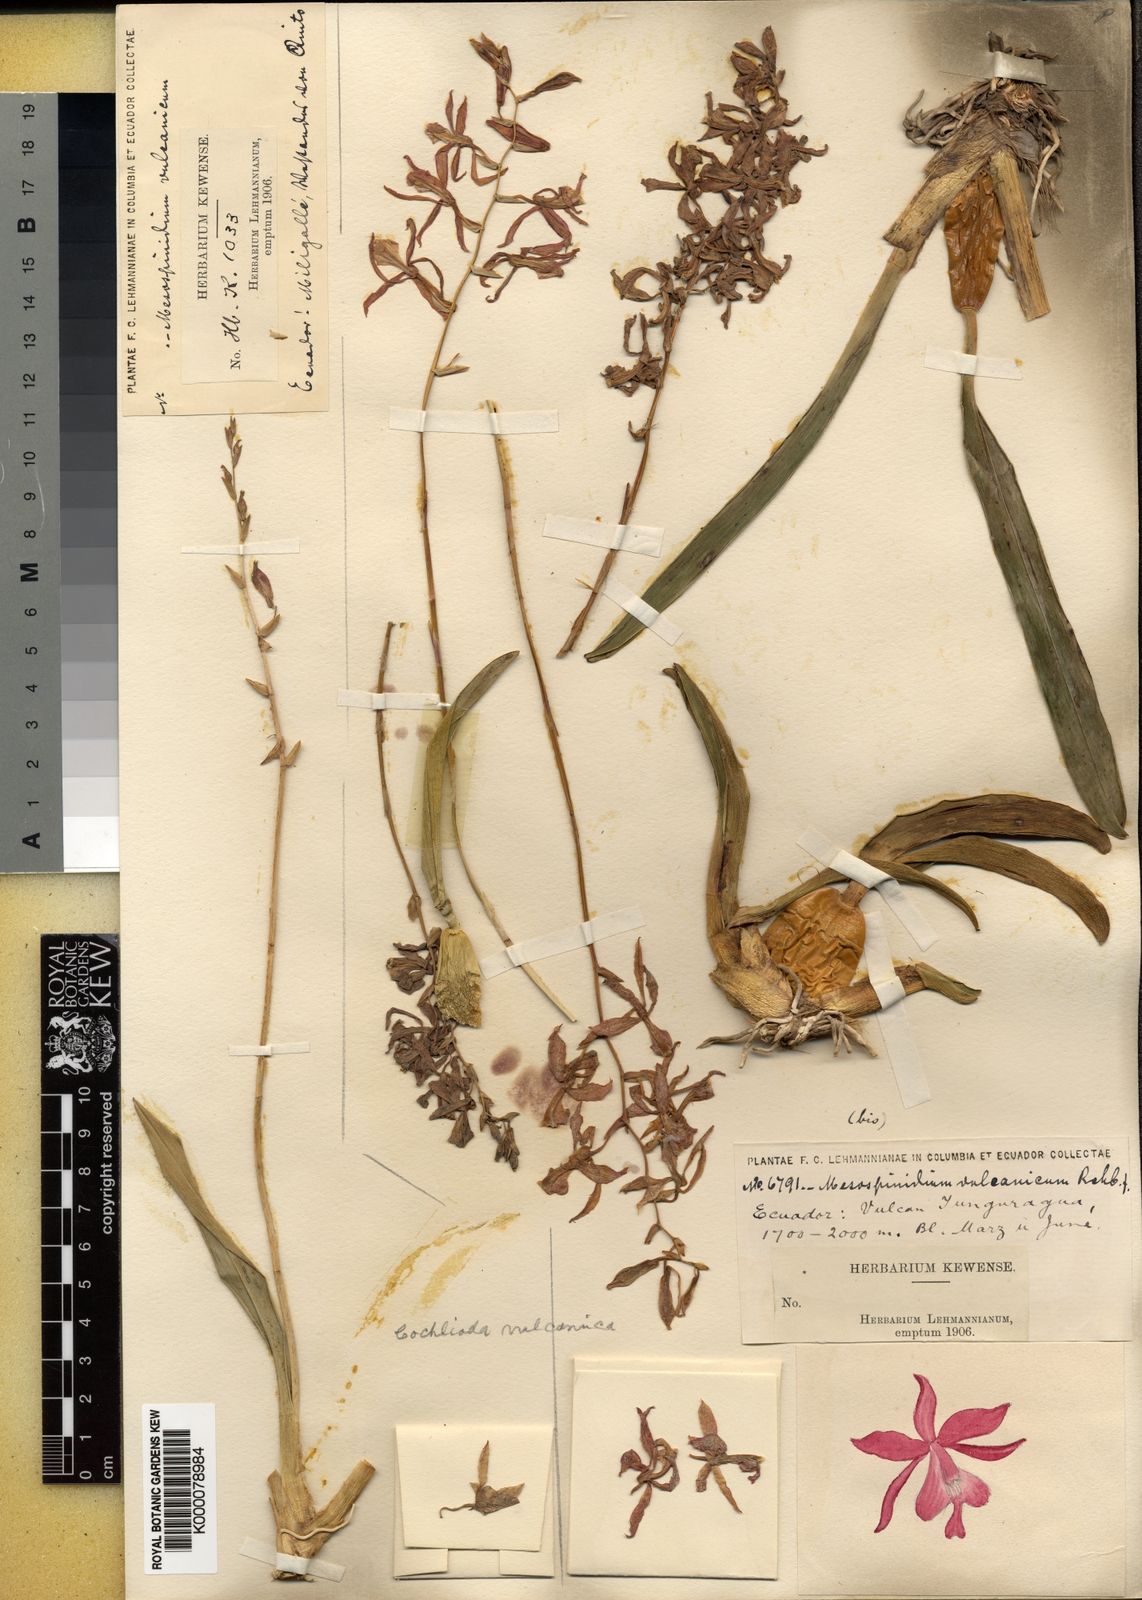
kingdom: Plantae
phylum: Tracheophyta
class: Liliopsida
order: Asparagales
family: Orchidaceae
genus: Oncidium
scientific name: Oncidium
